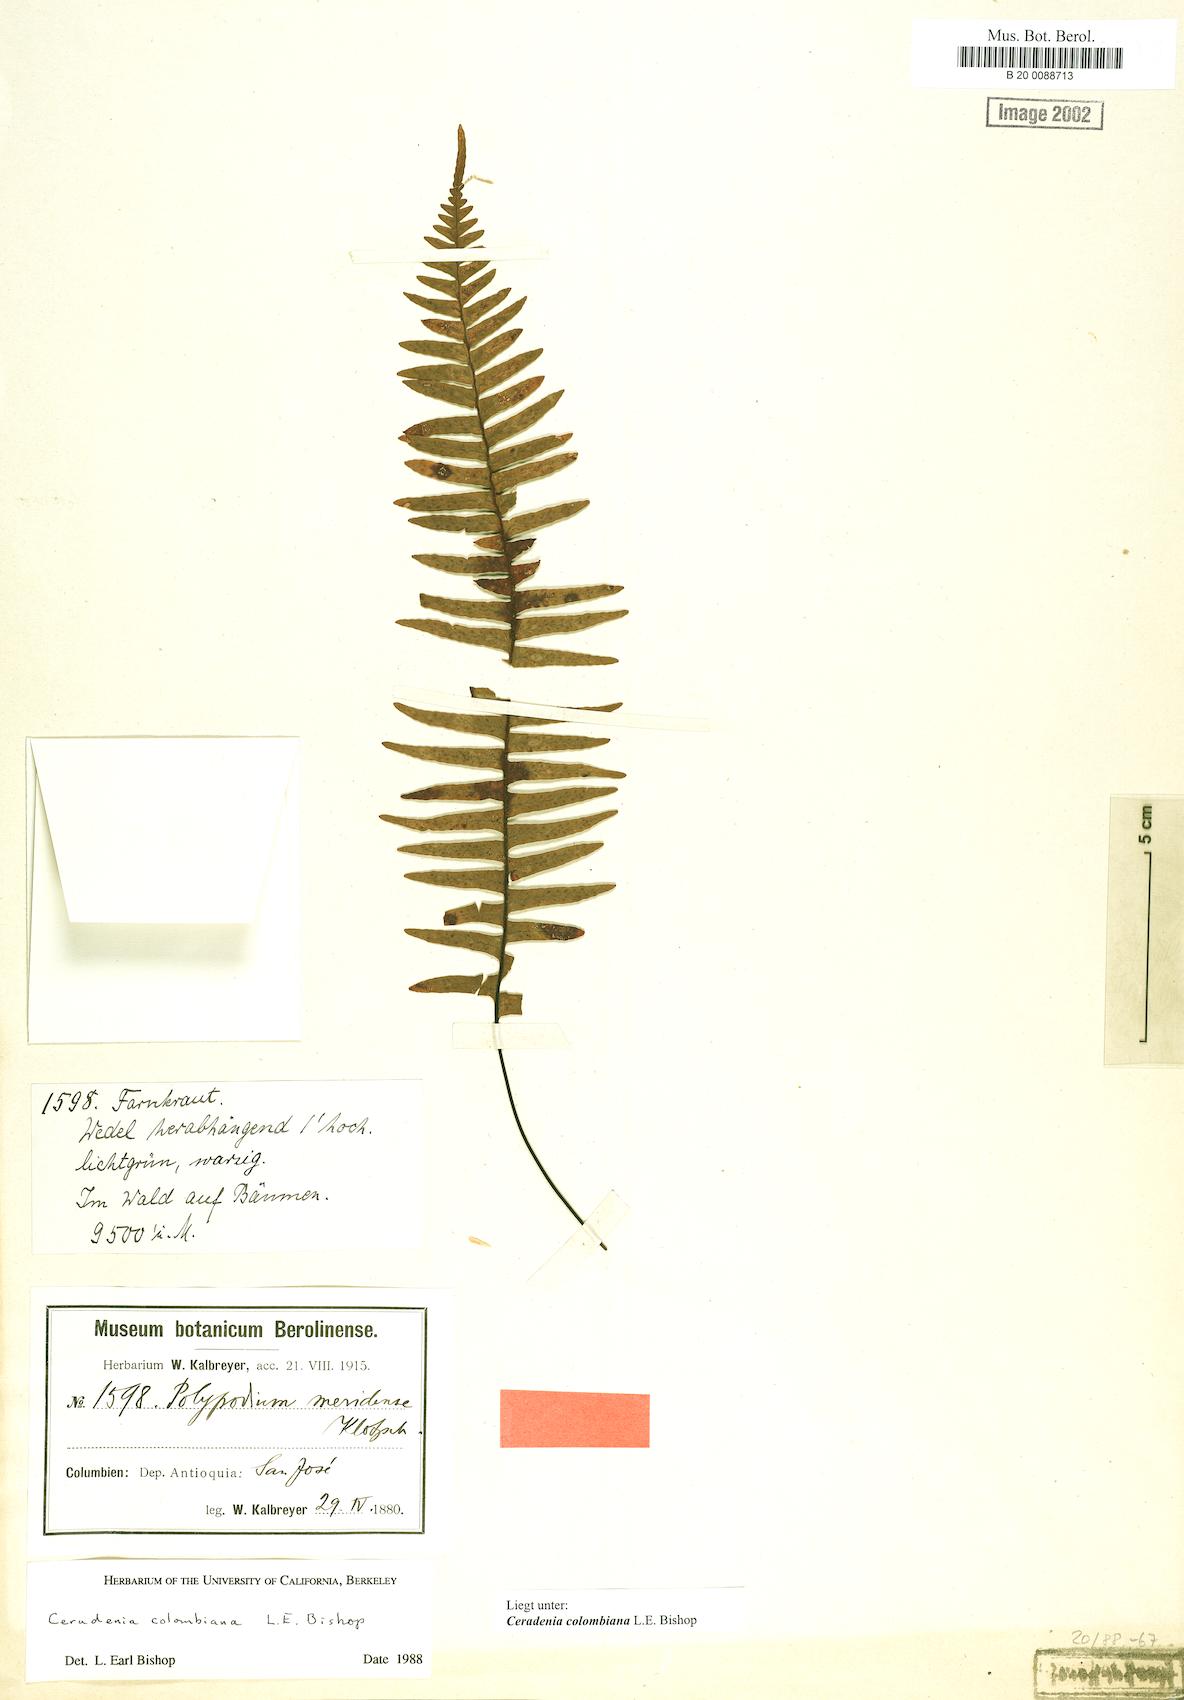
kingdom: Plantae
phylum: Tracheophyta
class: Polypodiopsida
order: Polypodiales
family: Polypodiaceae
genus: Ceradenia
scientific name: Ceradenia
